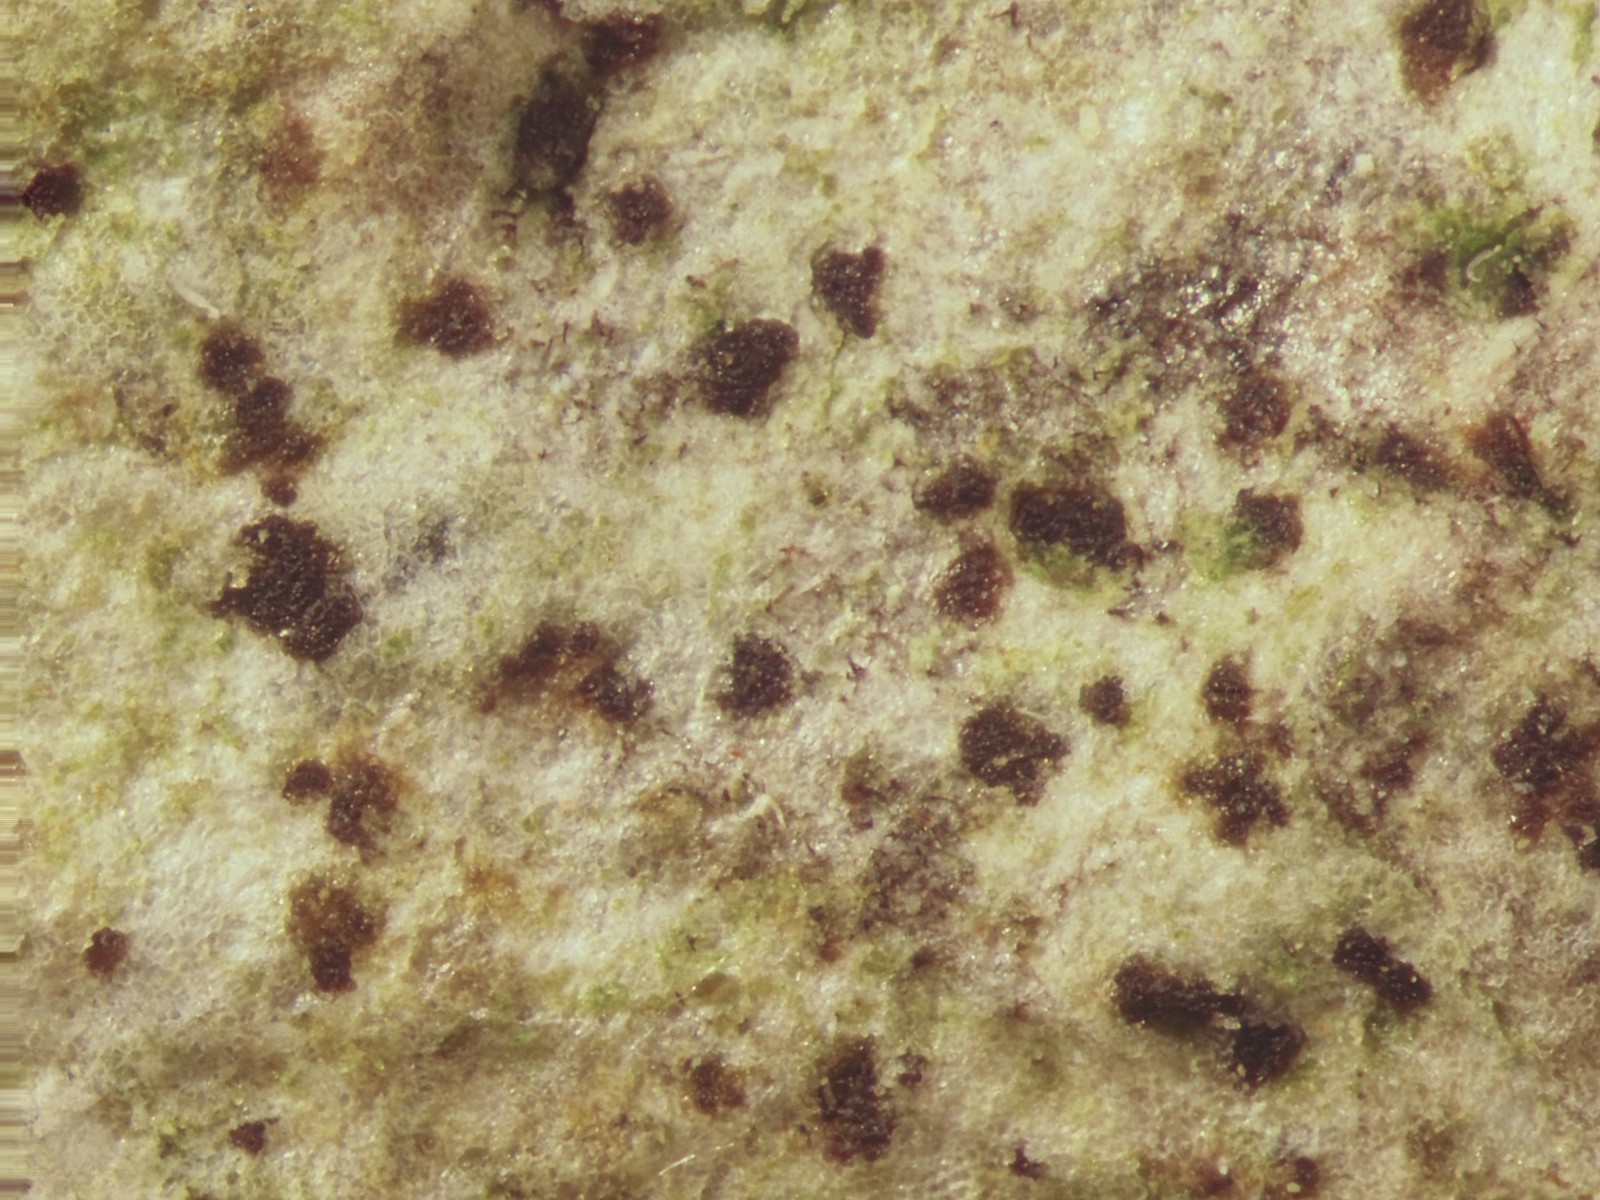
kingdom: Fungi
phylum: Ascomycota
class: Arthoniomycetes
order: Arthoniales
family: Arthoniaceae
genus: Arthonia
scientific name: Arthonia didyma
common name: oliven-pletlav
